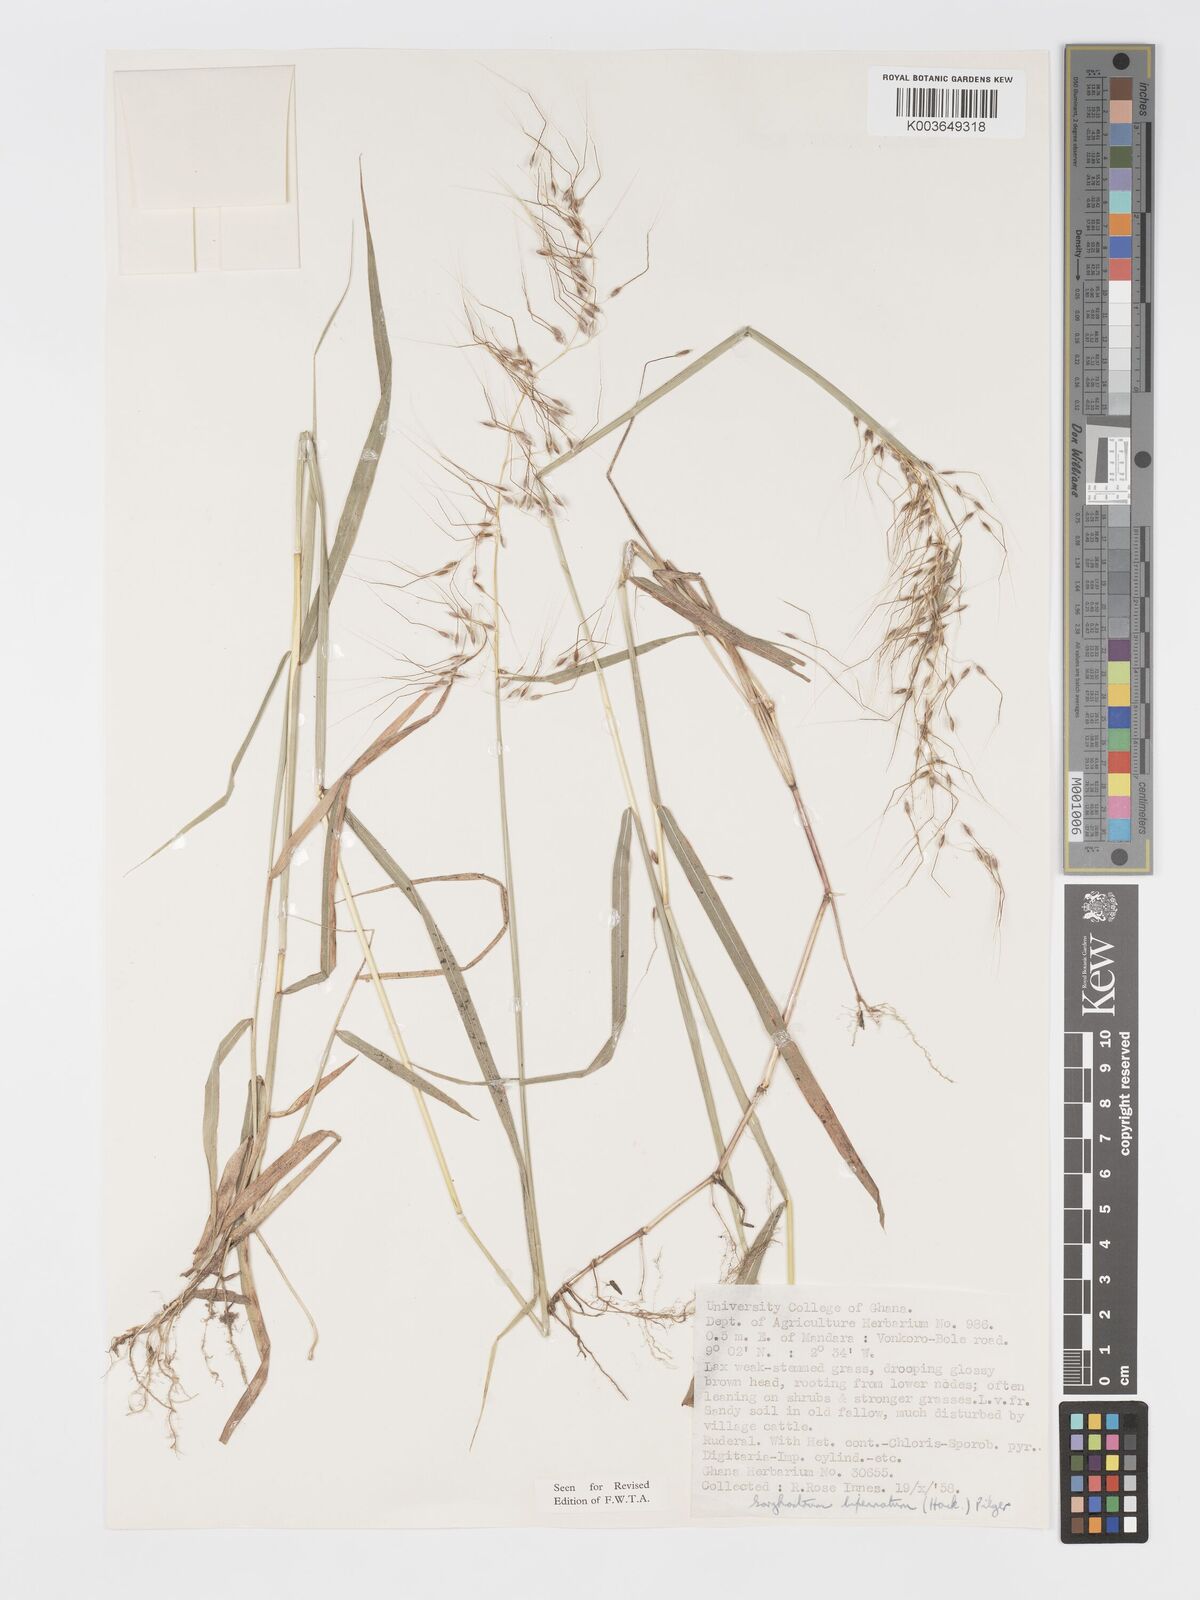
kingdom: Plantae
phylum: Tracheophyta
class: Liliopsida
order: Poales
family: Poaceae
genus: Sorghastrum
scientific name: Sorghastrum incompletum
